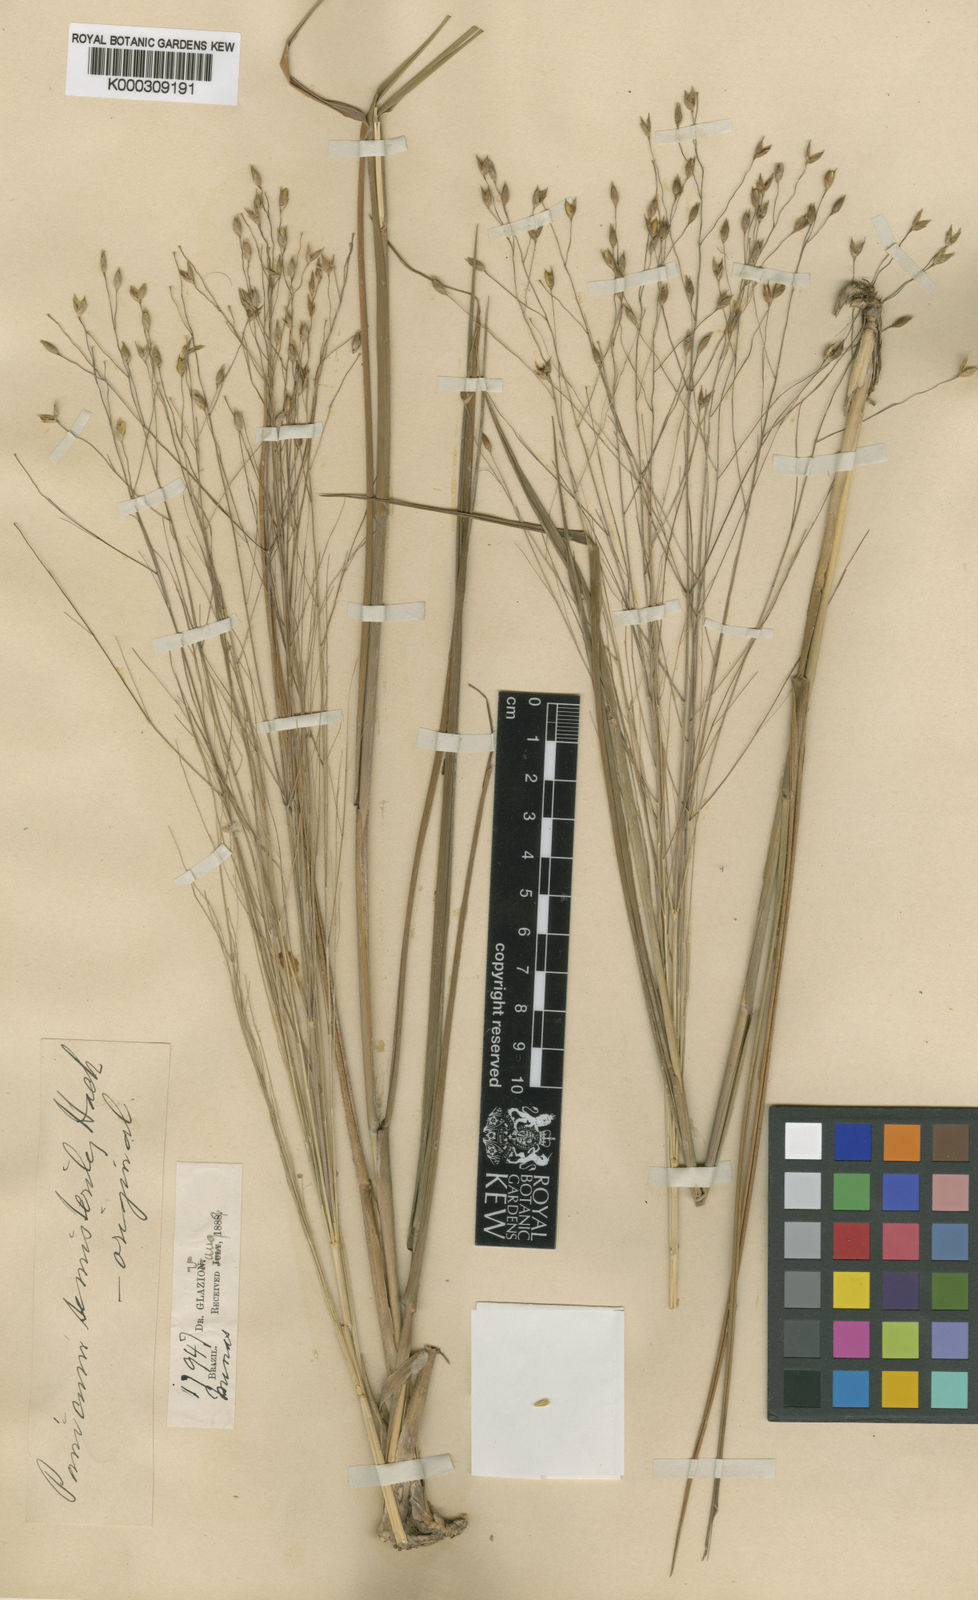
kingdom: Plantae
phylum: Tracheophyta
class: Liliopsida
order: Poales
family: Poaceae
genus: Panicum
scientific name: Panicum olyroides
